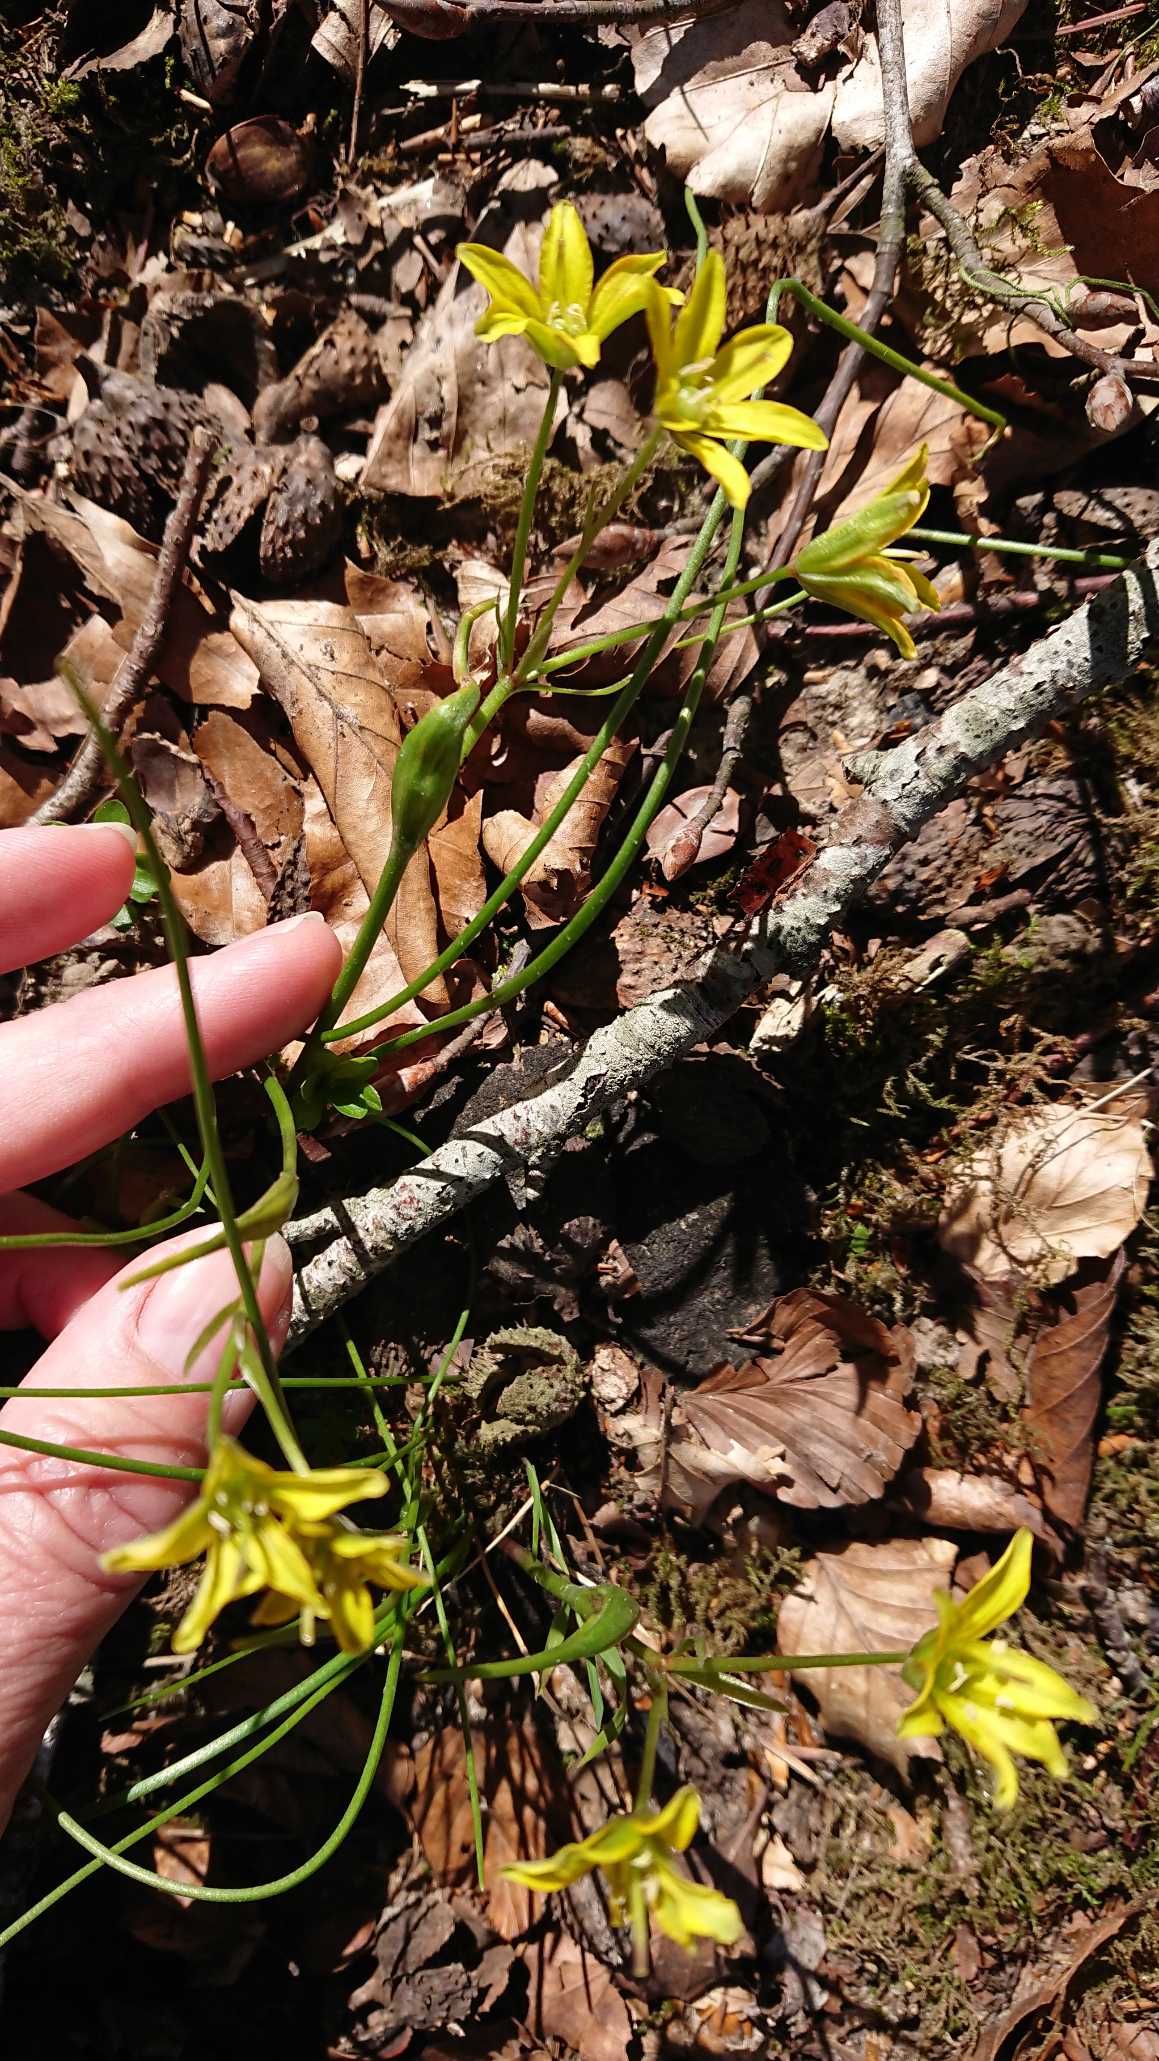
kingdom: Plantae
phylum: Tracheophyta
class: Liliopsida
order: Liliales
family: Liliaceae
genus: Gagea
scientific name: Gagea spathacea
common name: Hylster-guldstjerne
